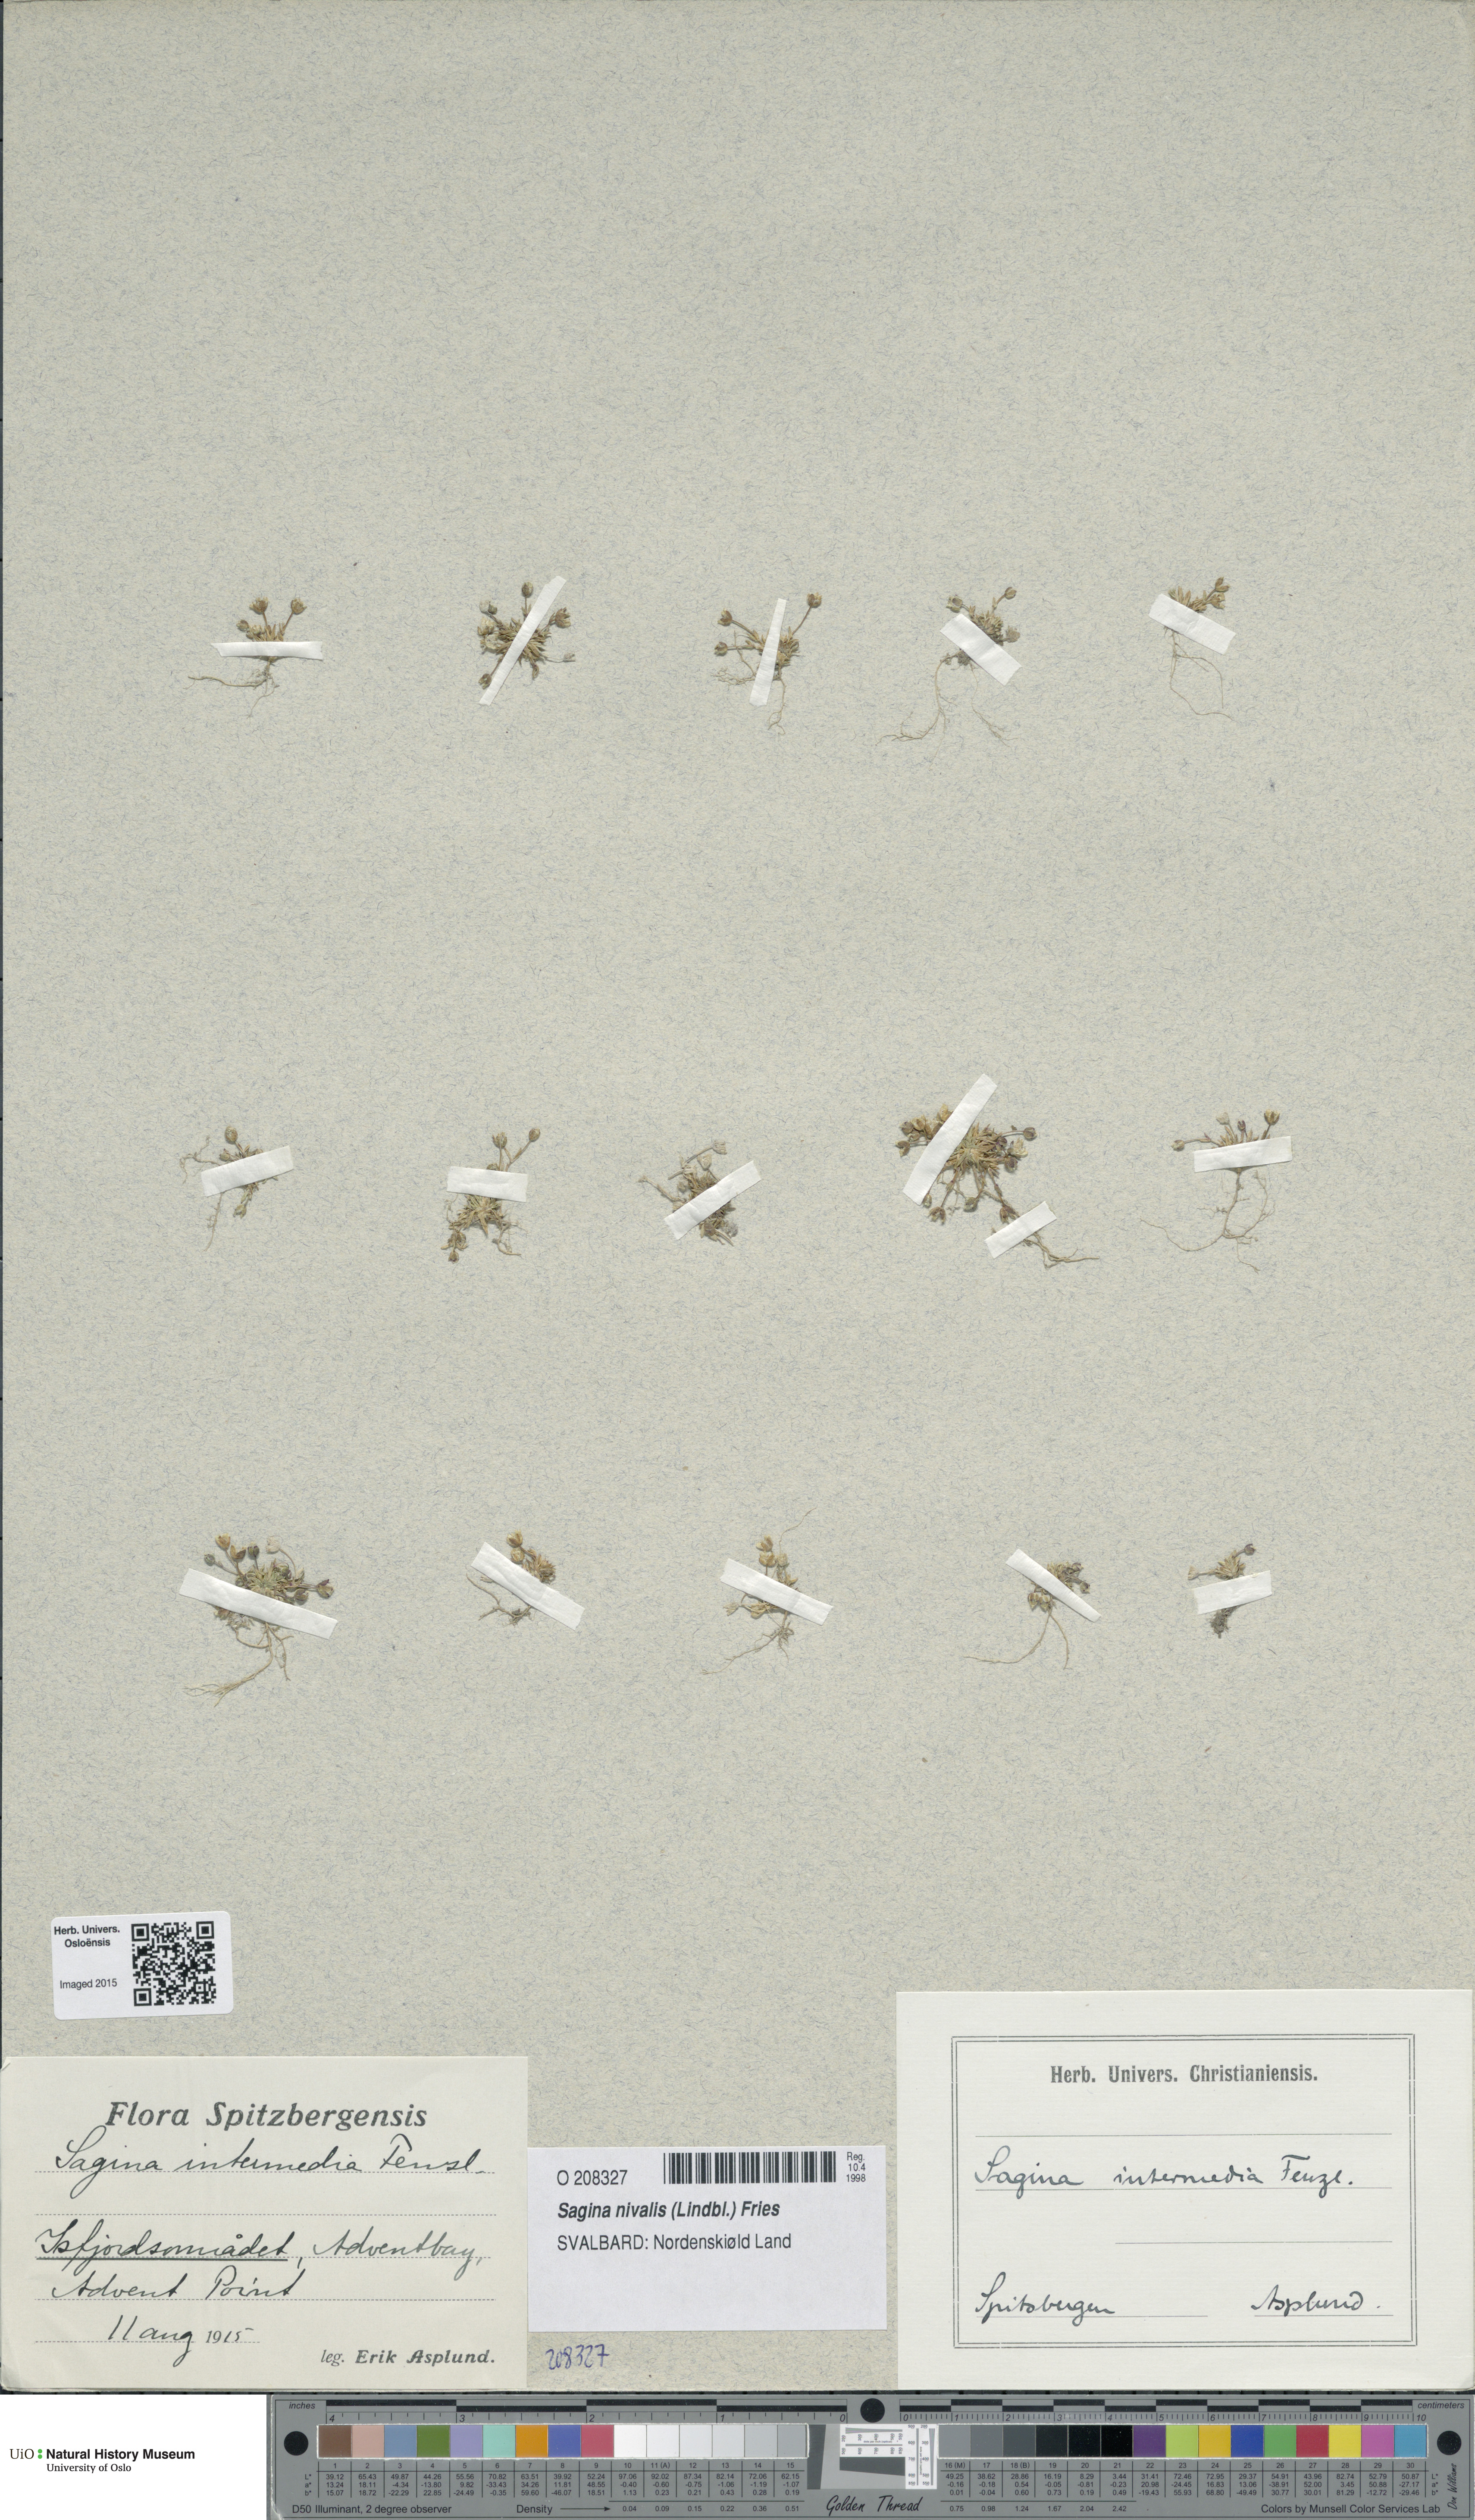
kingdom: Plantae
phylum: Tracheophyta
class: Magnoliopsida
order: Caryophyllales
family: Caryophyllaceae
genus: Sagina
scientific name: Sagina nivalis
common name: Snow pearlwort
